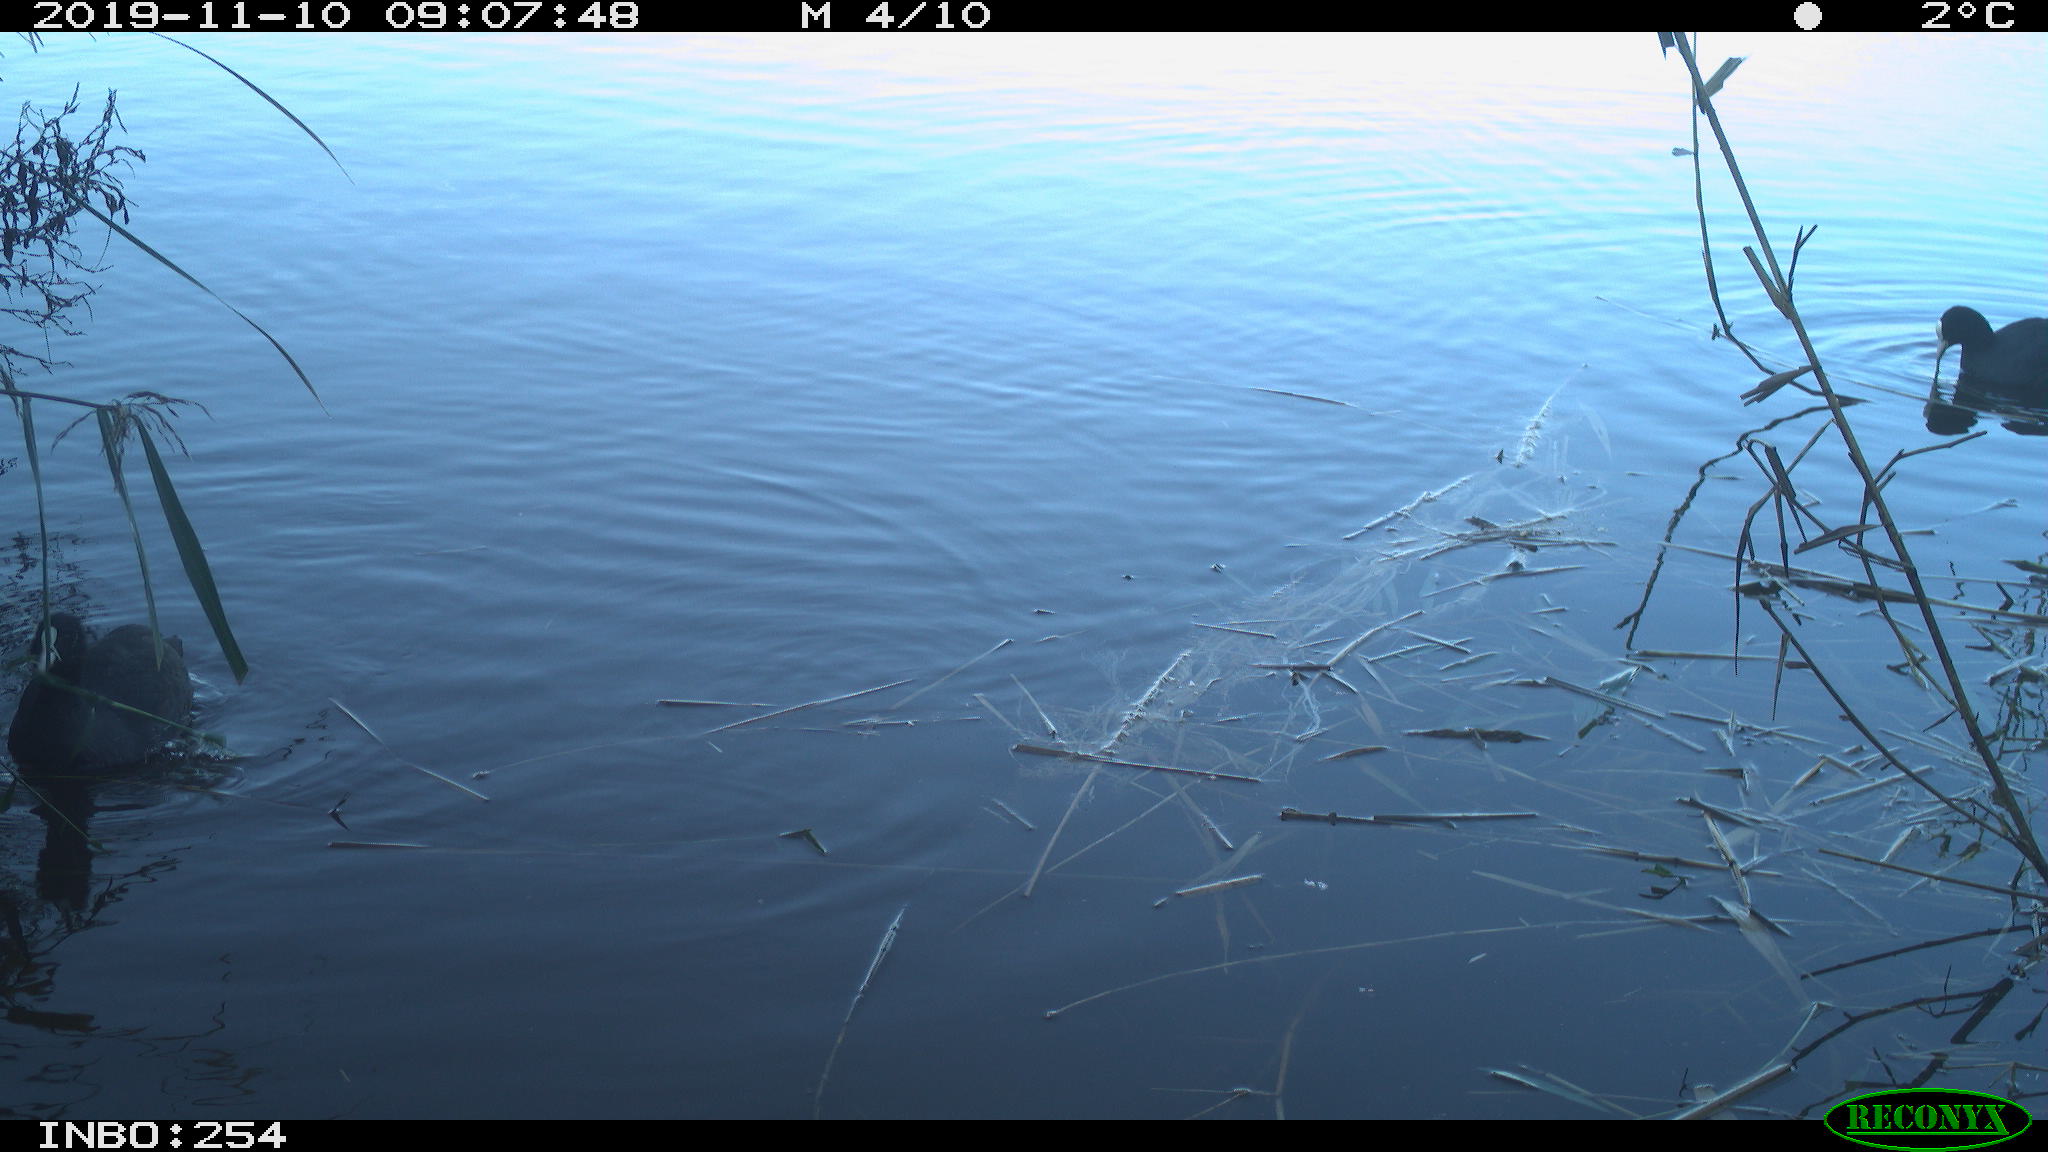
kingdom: Animalia
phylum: Chordata
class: Aves
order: Gruiformes
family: Rallidae
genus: Fulica
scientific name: Fulica atra
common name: Eurasian coot
